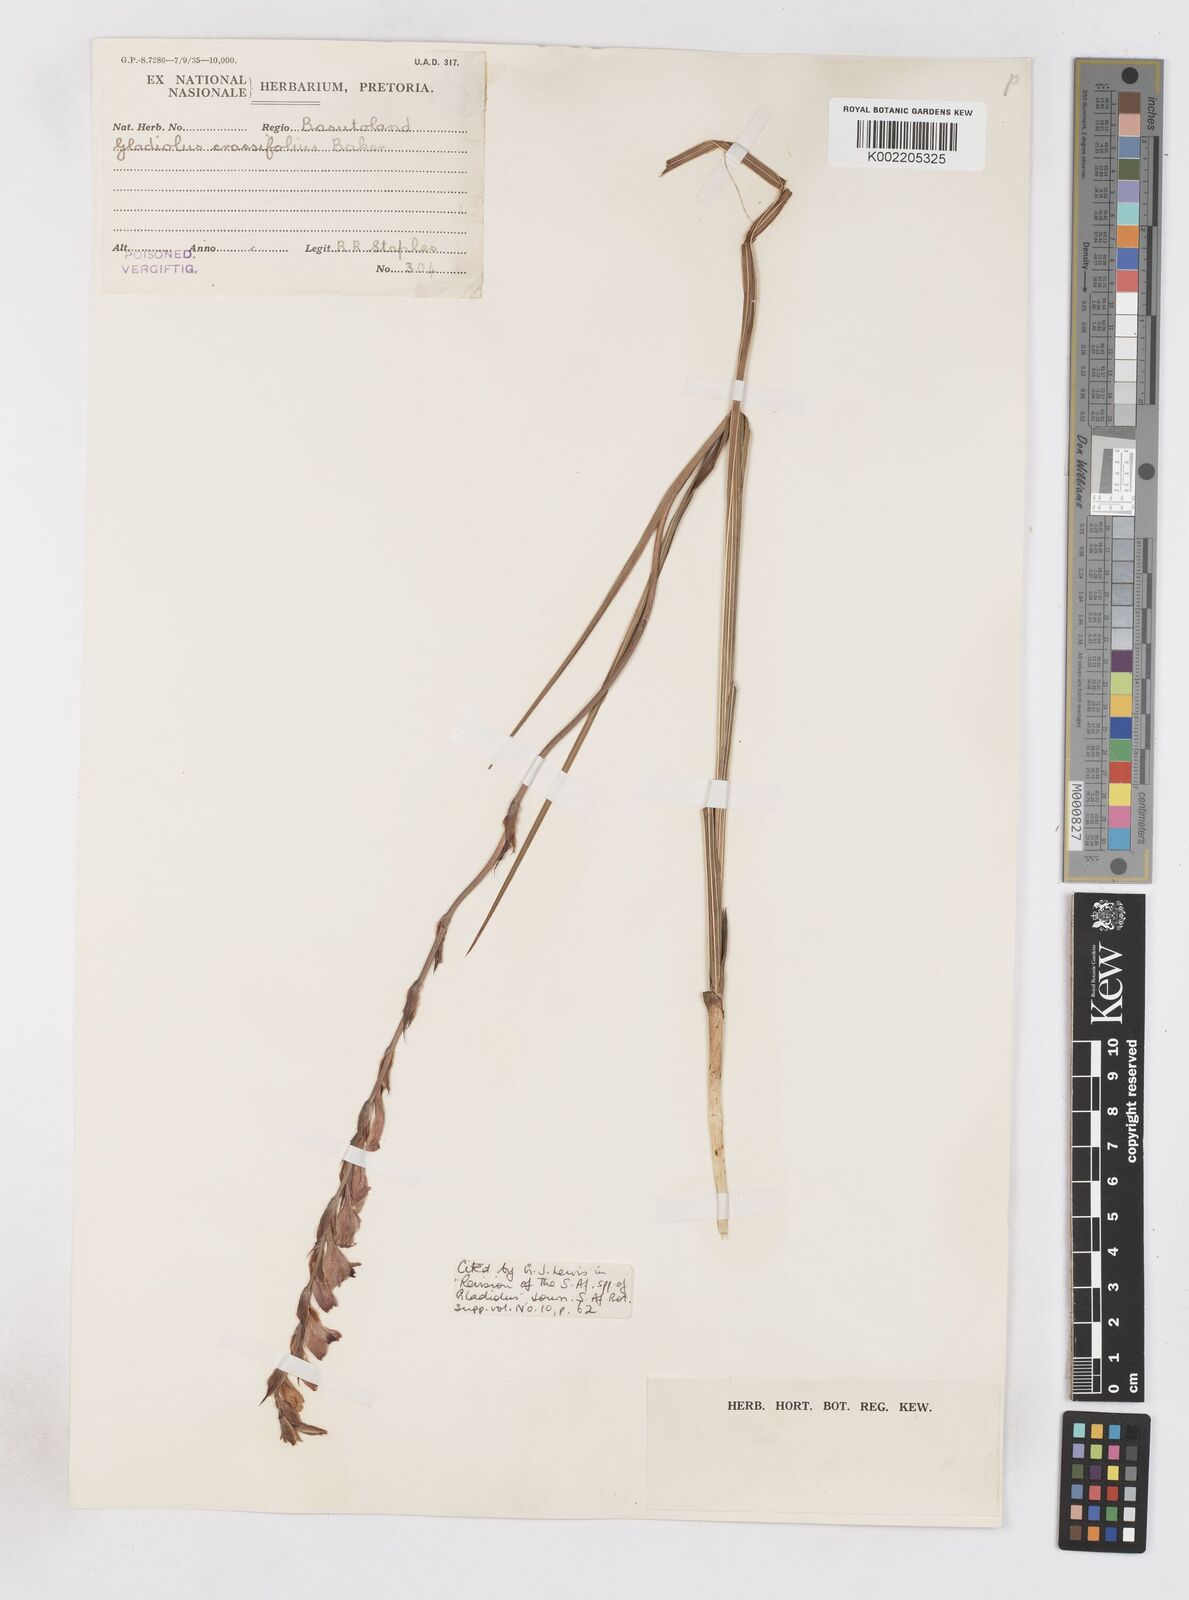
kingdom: Plantae
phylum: Tracheophyta
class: Liliopsida
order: Asparagales
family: Iridaceae
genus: Gladiolus
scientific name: Gladiolus crassifolius
